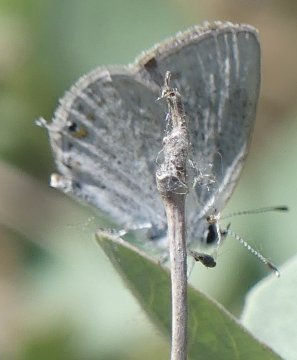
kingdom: Animalia
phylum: Arthropoda
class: Insecta
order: Lepidoptera
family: Lycaenidae
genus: Elkalyce
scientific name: Elkalyce amyntula
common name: Western Tailed-Blue
